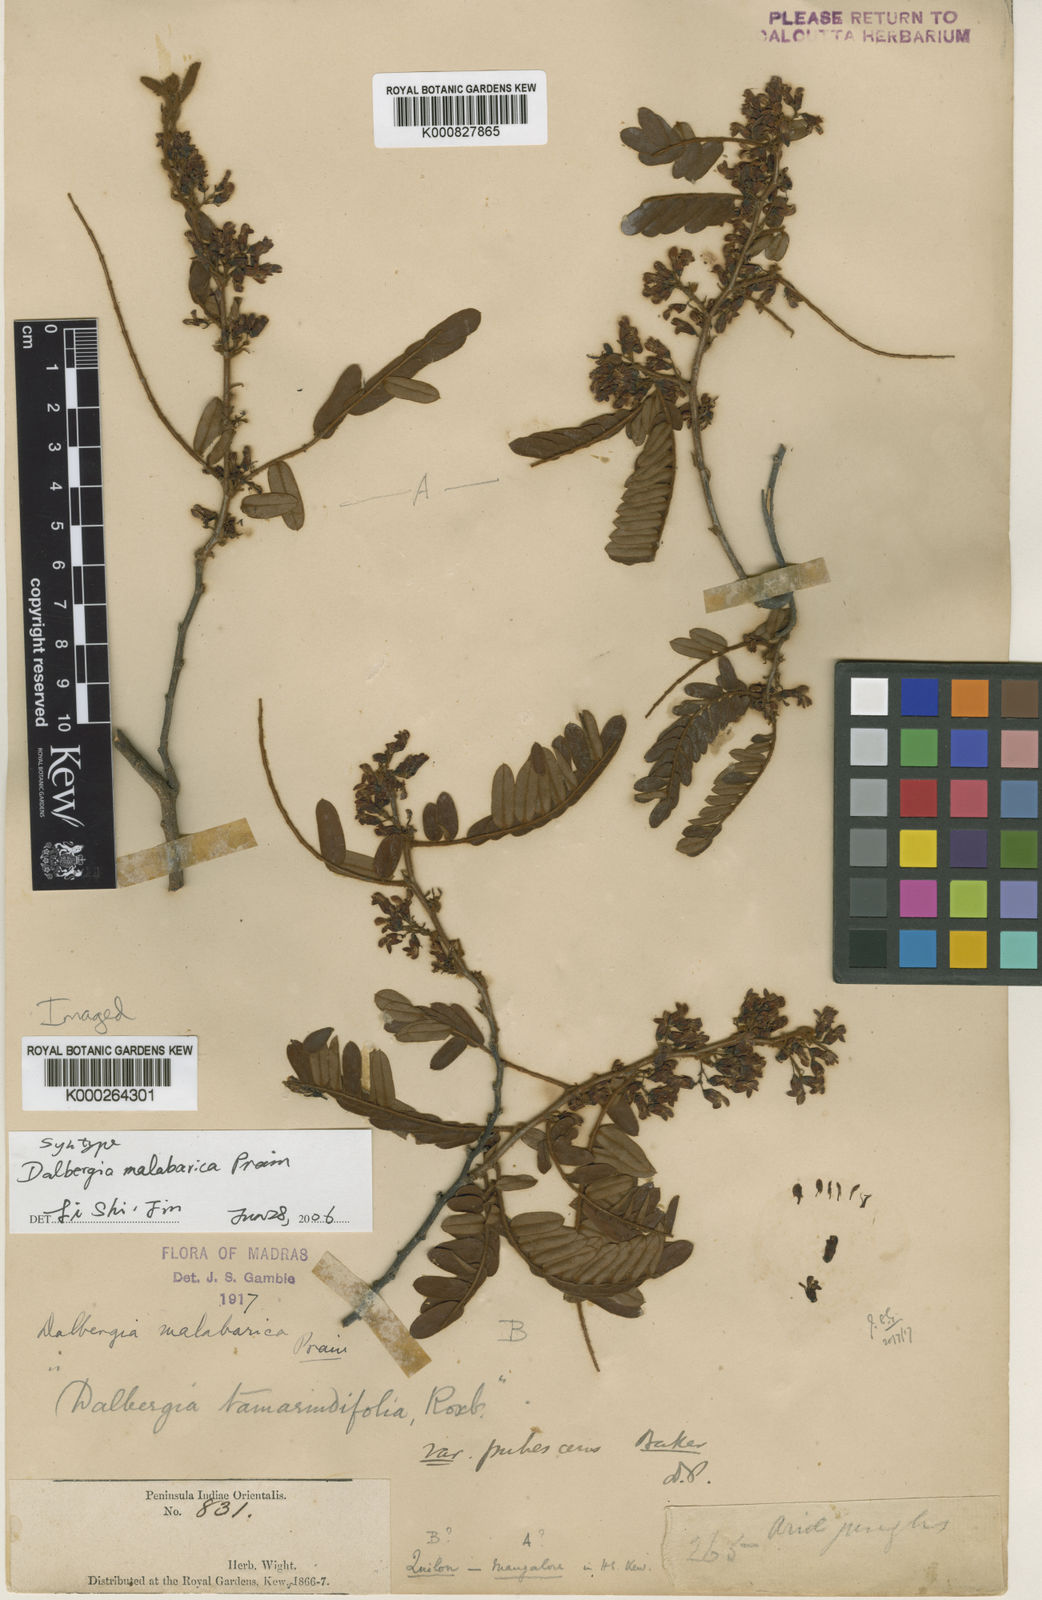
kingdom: Plantae
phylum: Tracheophyta
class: Magnoliopsida
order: Fabales
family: Fabaceae
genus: Dalbergia
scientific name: Dalbergia malabarica
